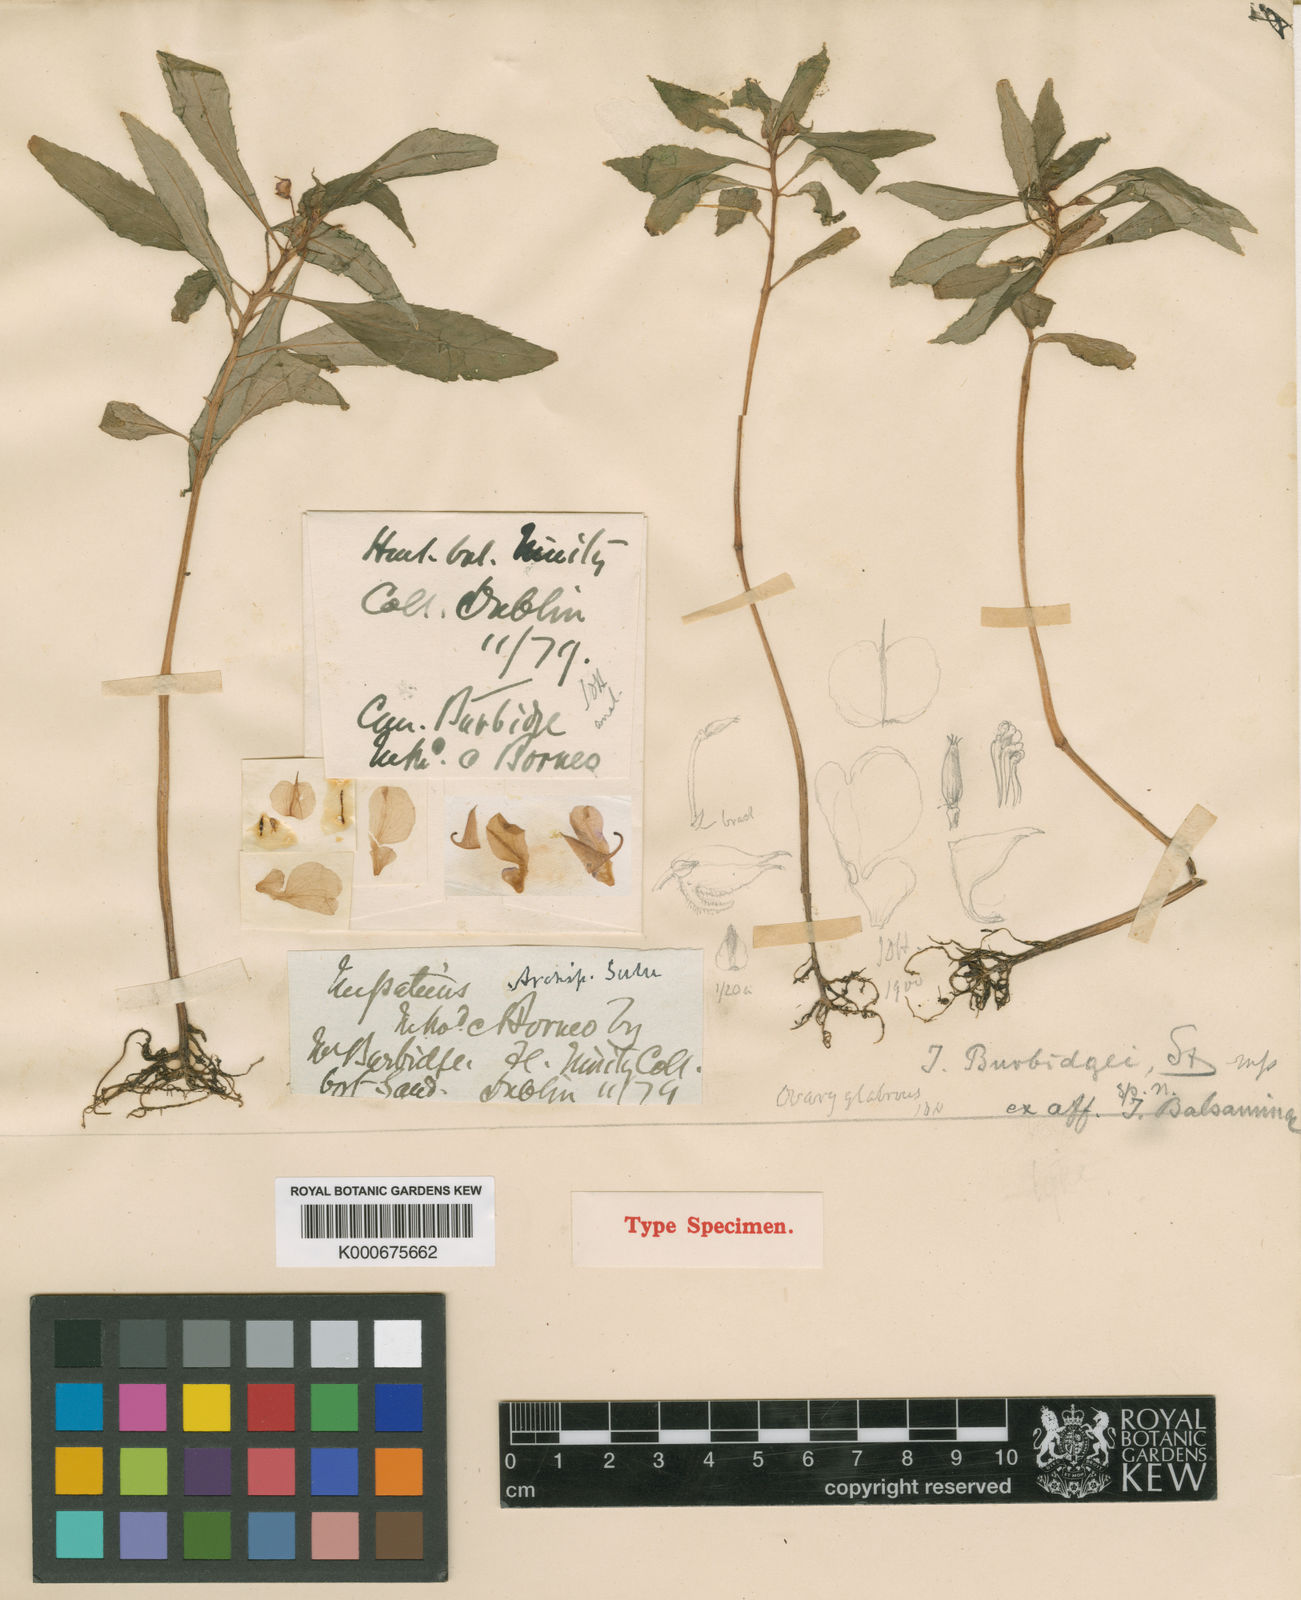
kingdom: Plantae
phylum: Tracheophyta
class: Magnoliopsida
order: Ericales
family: Balsaminaceae
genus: Impatiens
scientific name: Impatiens balsamina
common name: Balsam
